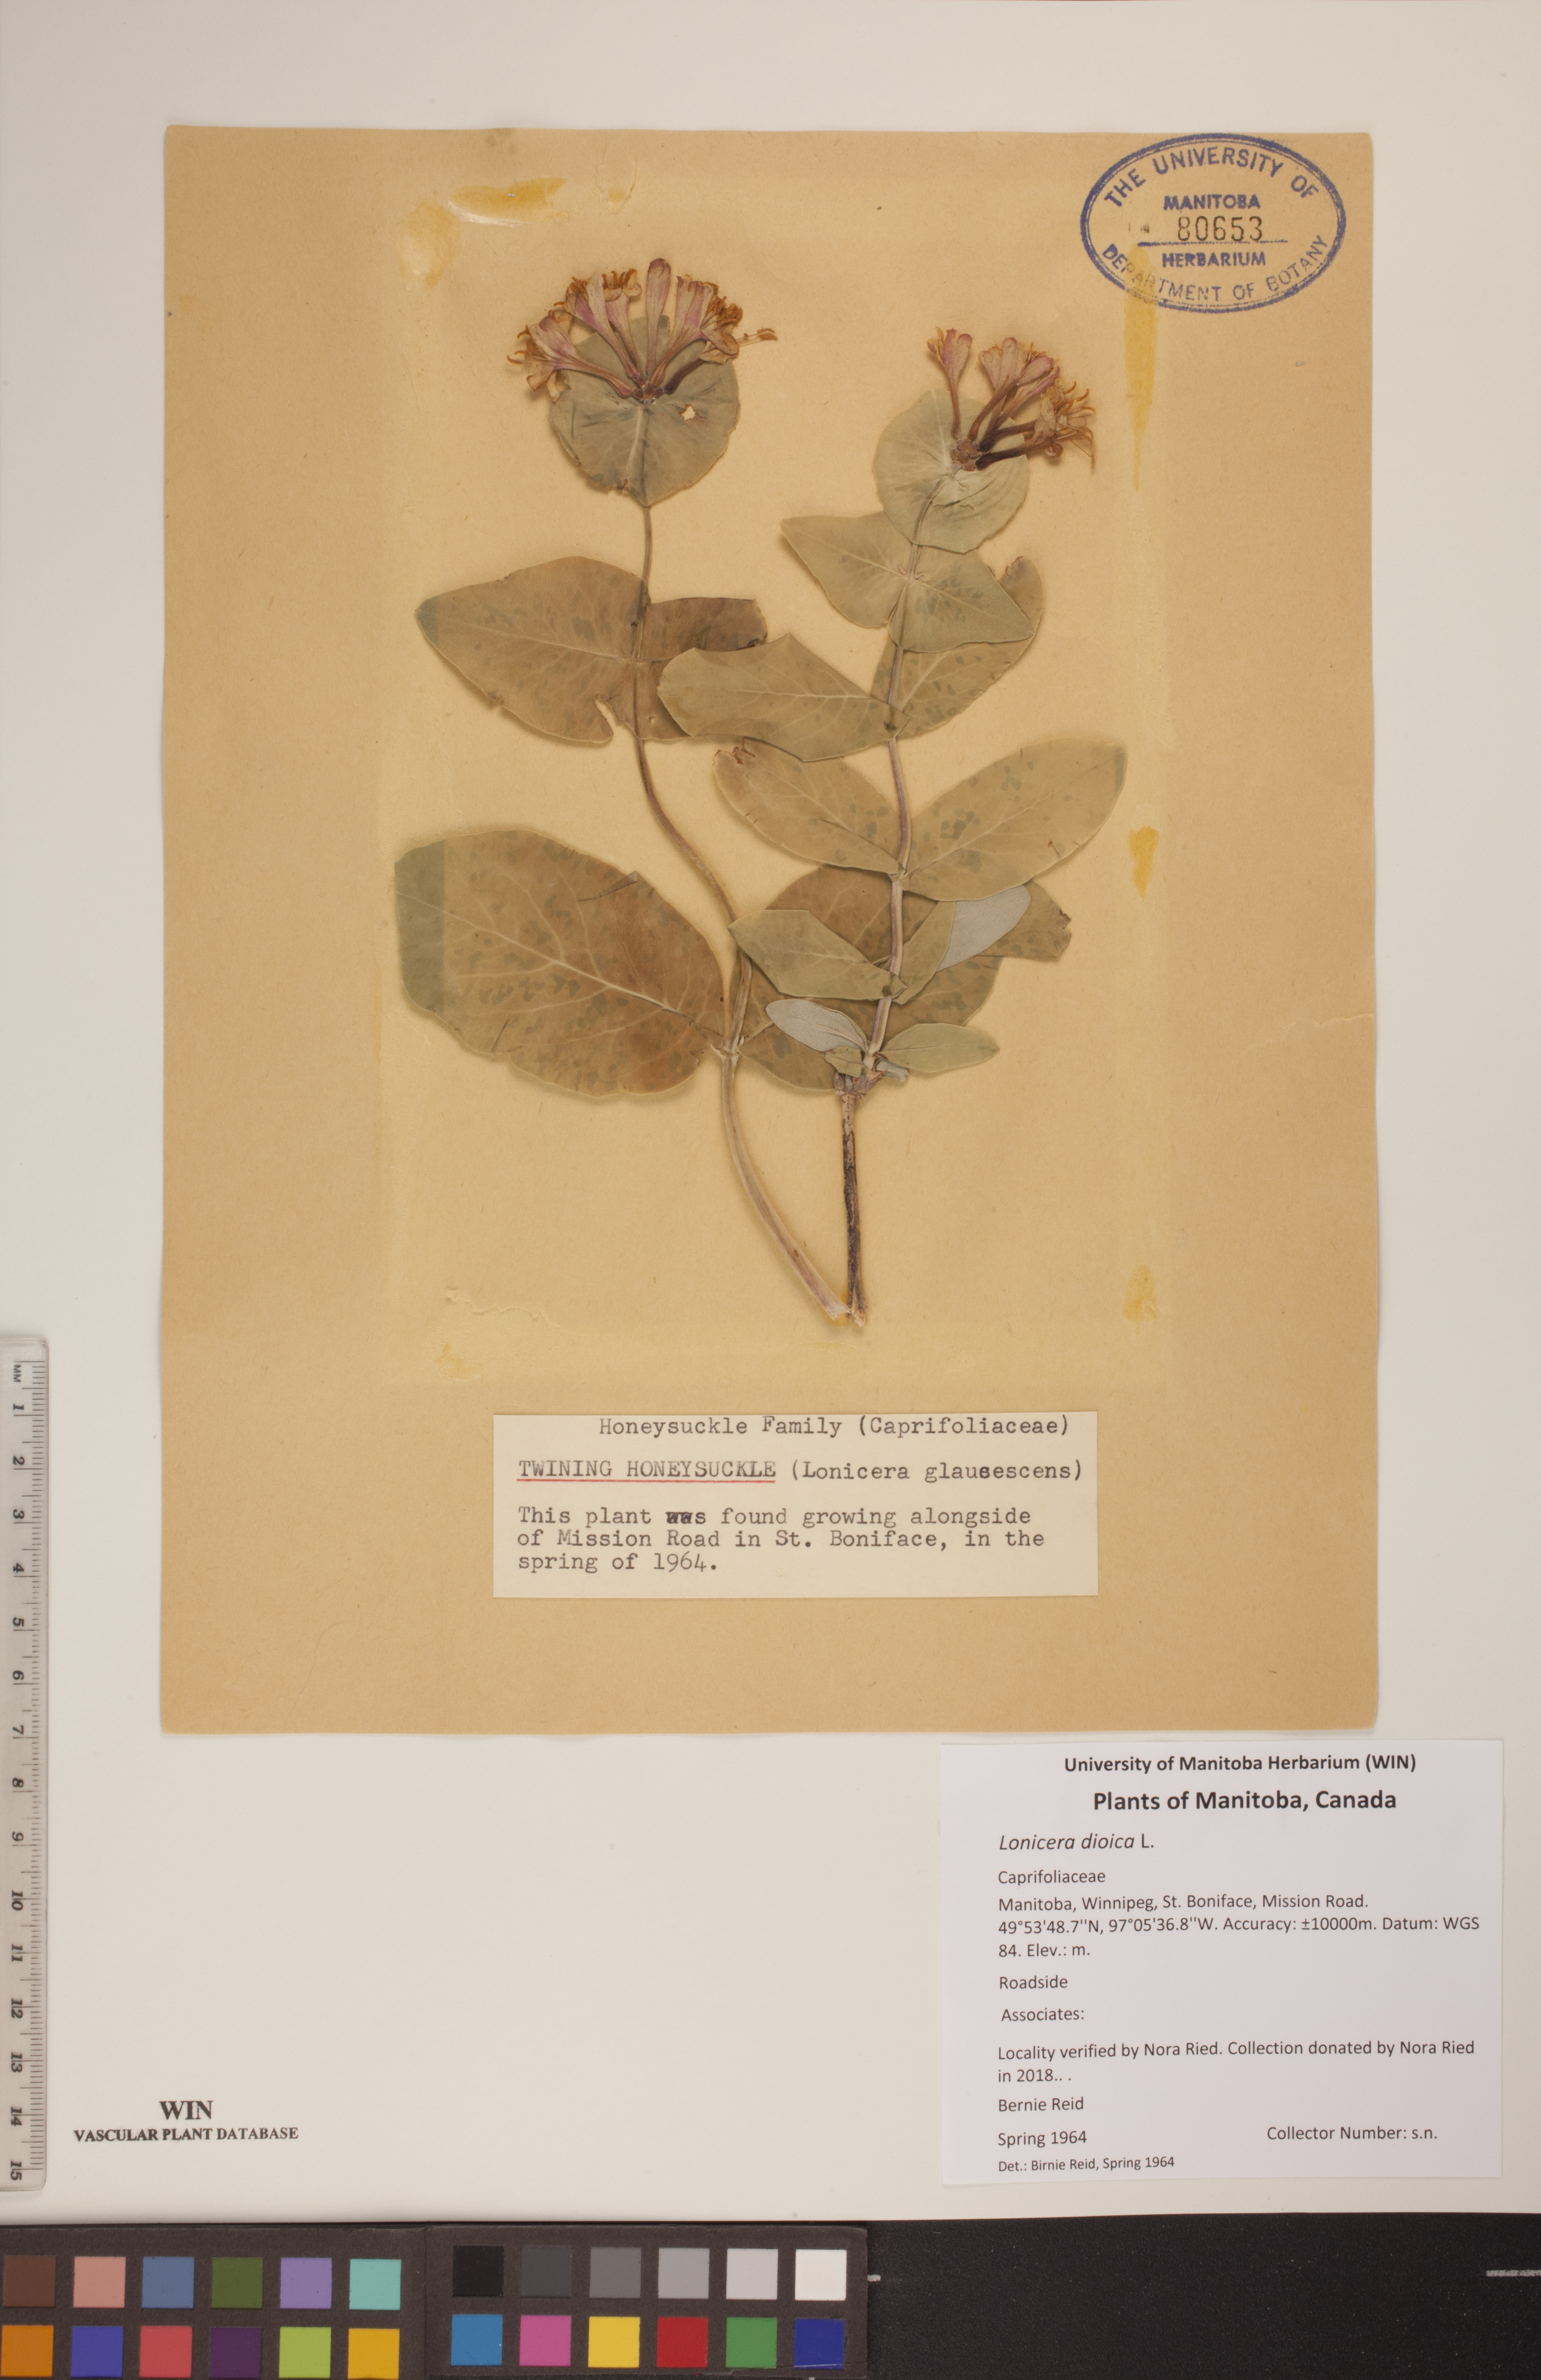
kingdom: Plantae
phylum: Tracheophyta
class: Magnoliopsida
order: Dipsacales
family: Caprifoliaceae
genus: Lonicera
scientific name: Lonicera dioica
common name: Limber honeysuckle
